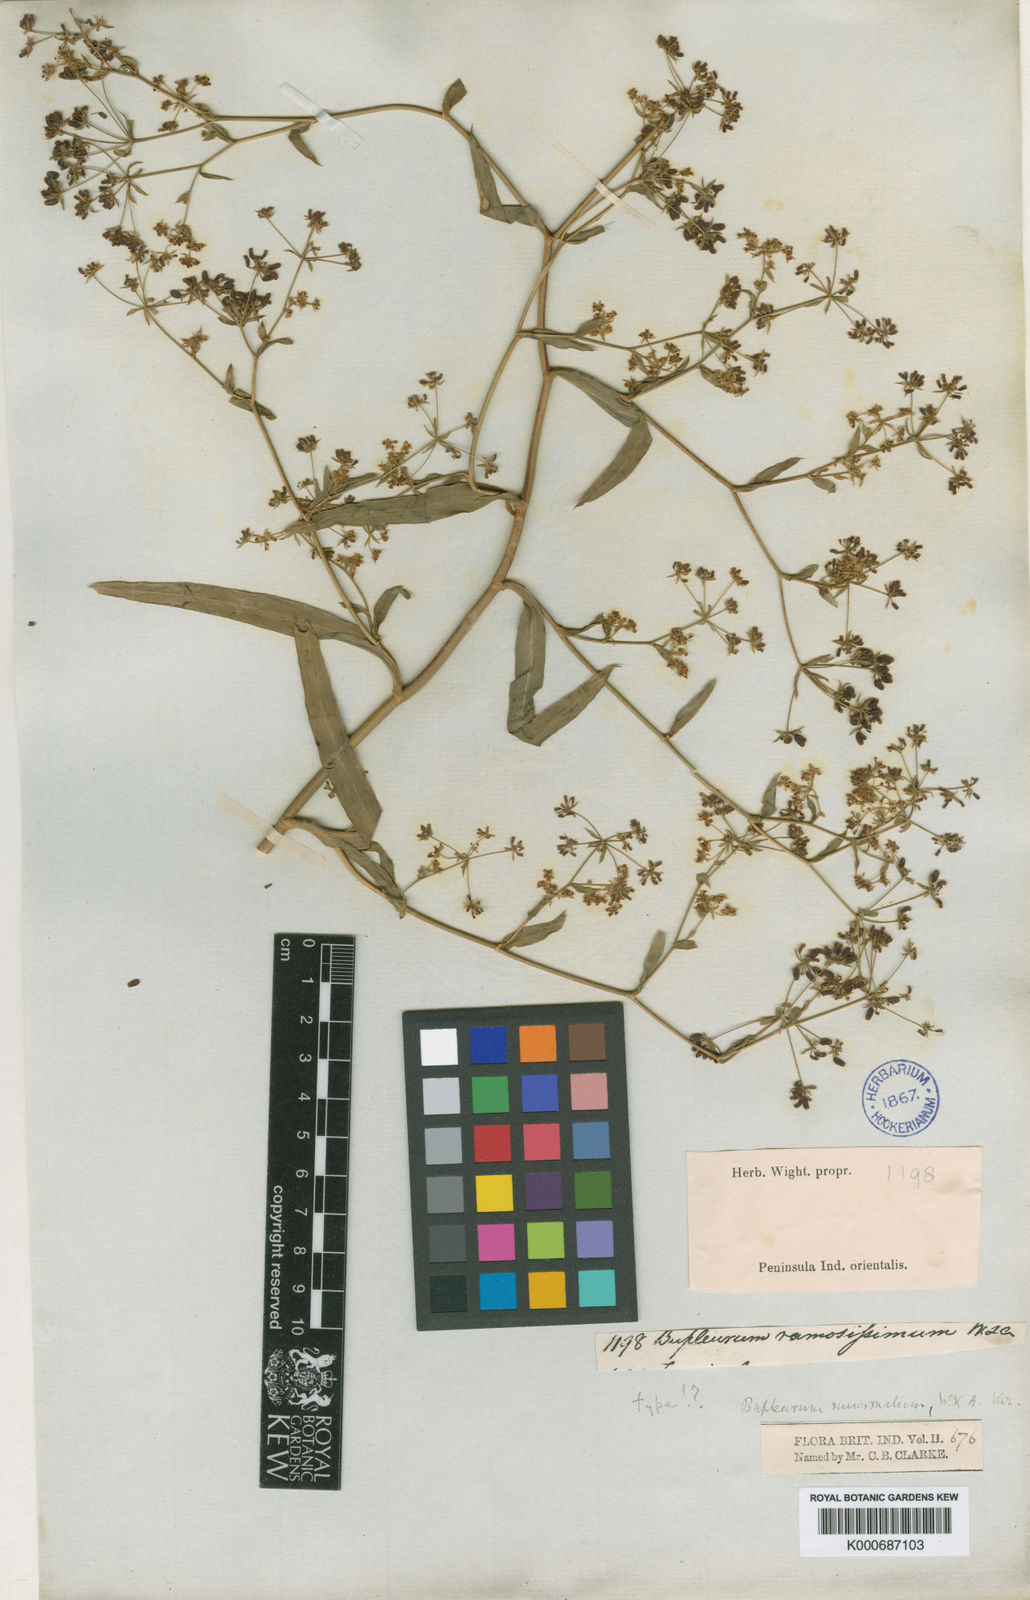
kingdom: Plantae
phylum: Tracheophyta
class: Magnoliopsida
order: Apiales
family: Apiaceae
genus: Bupleurum
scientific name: Bupleurum ramosissimum
